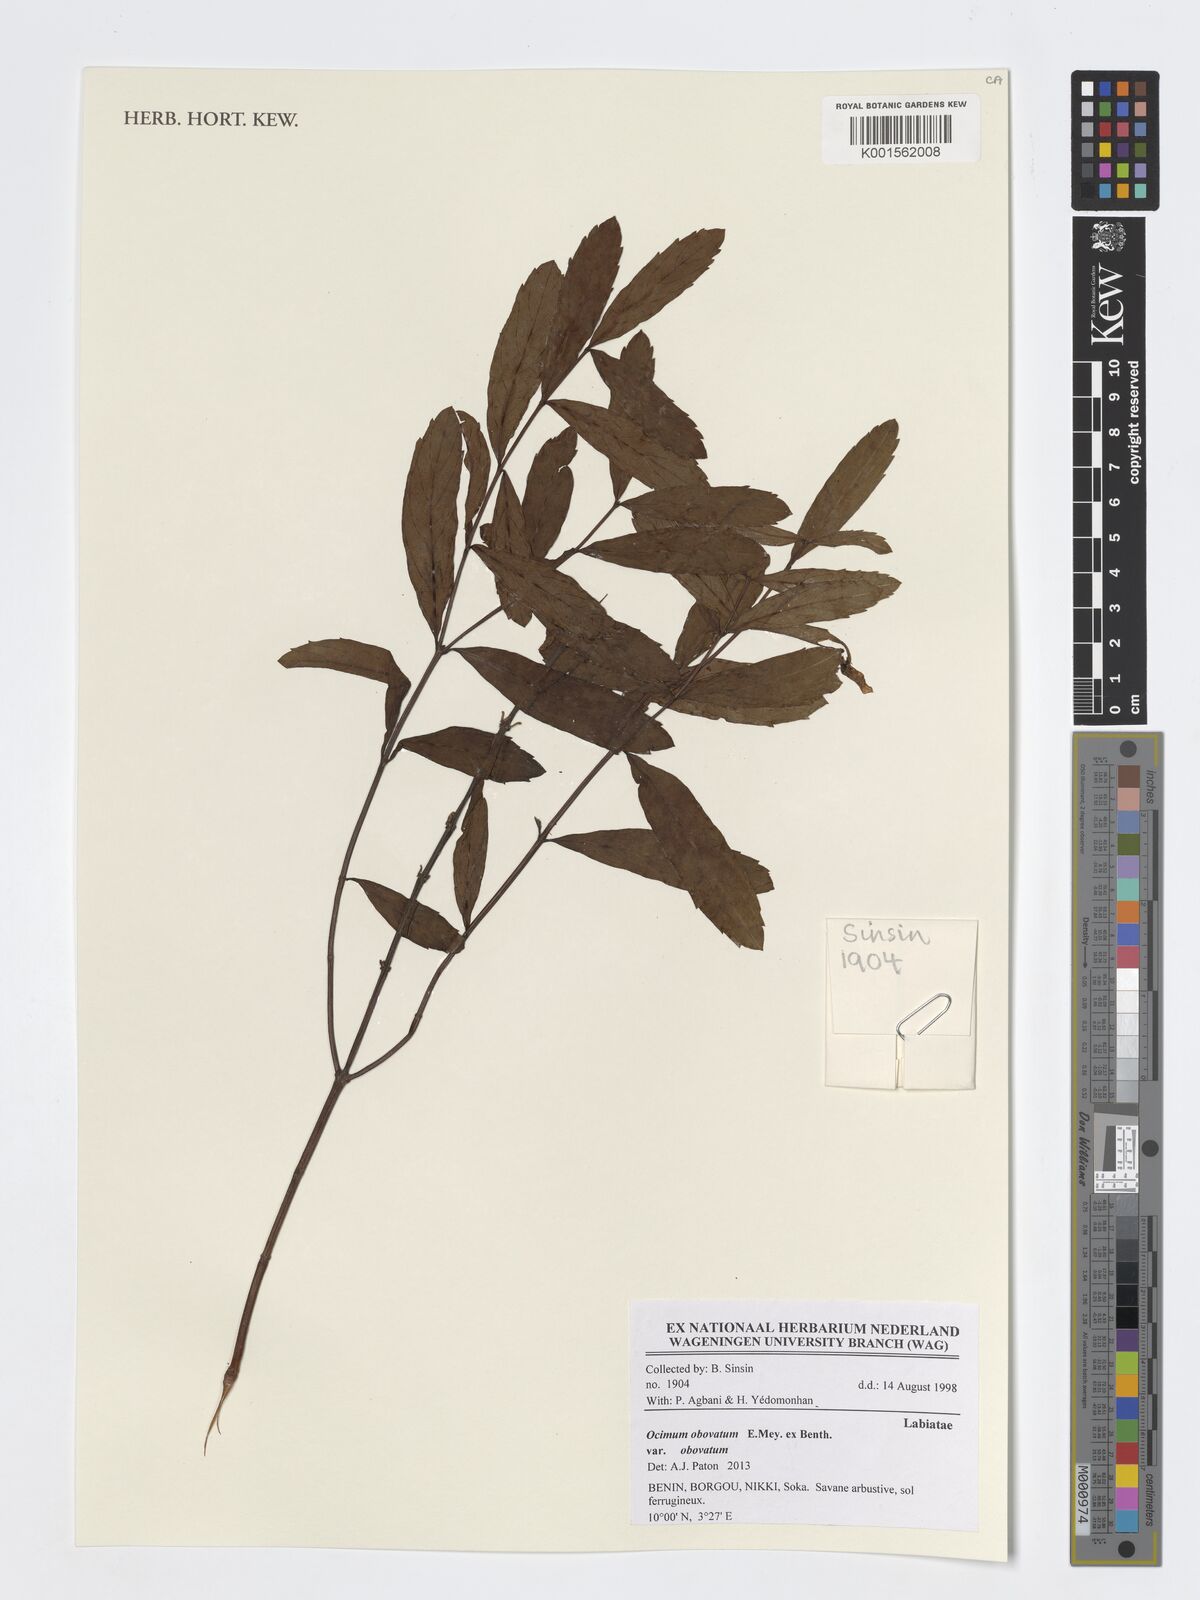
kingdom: Plantae
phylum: Tracheophyta
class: Magnoliopsida
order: Lamiales
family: Lamiaceae
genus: Ocimum
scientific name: Ocimum obovatum
